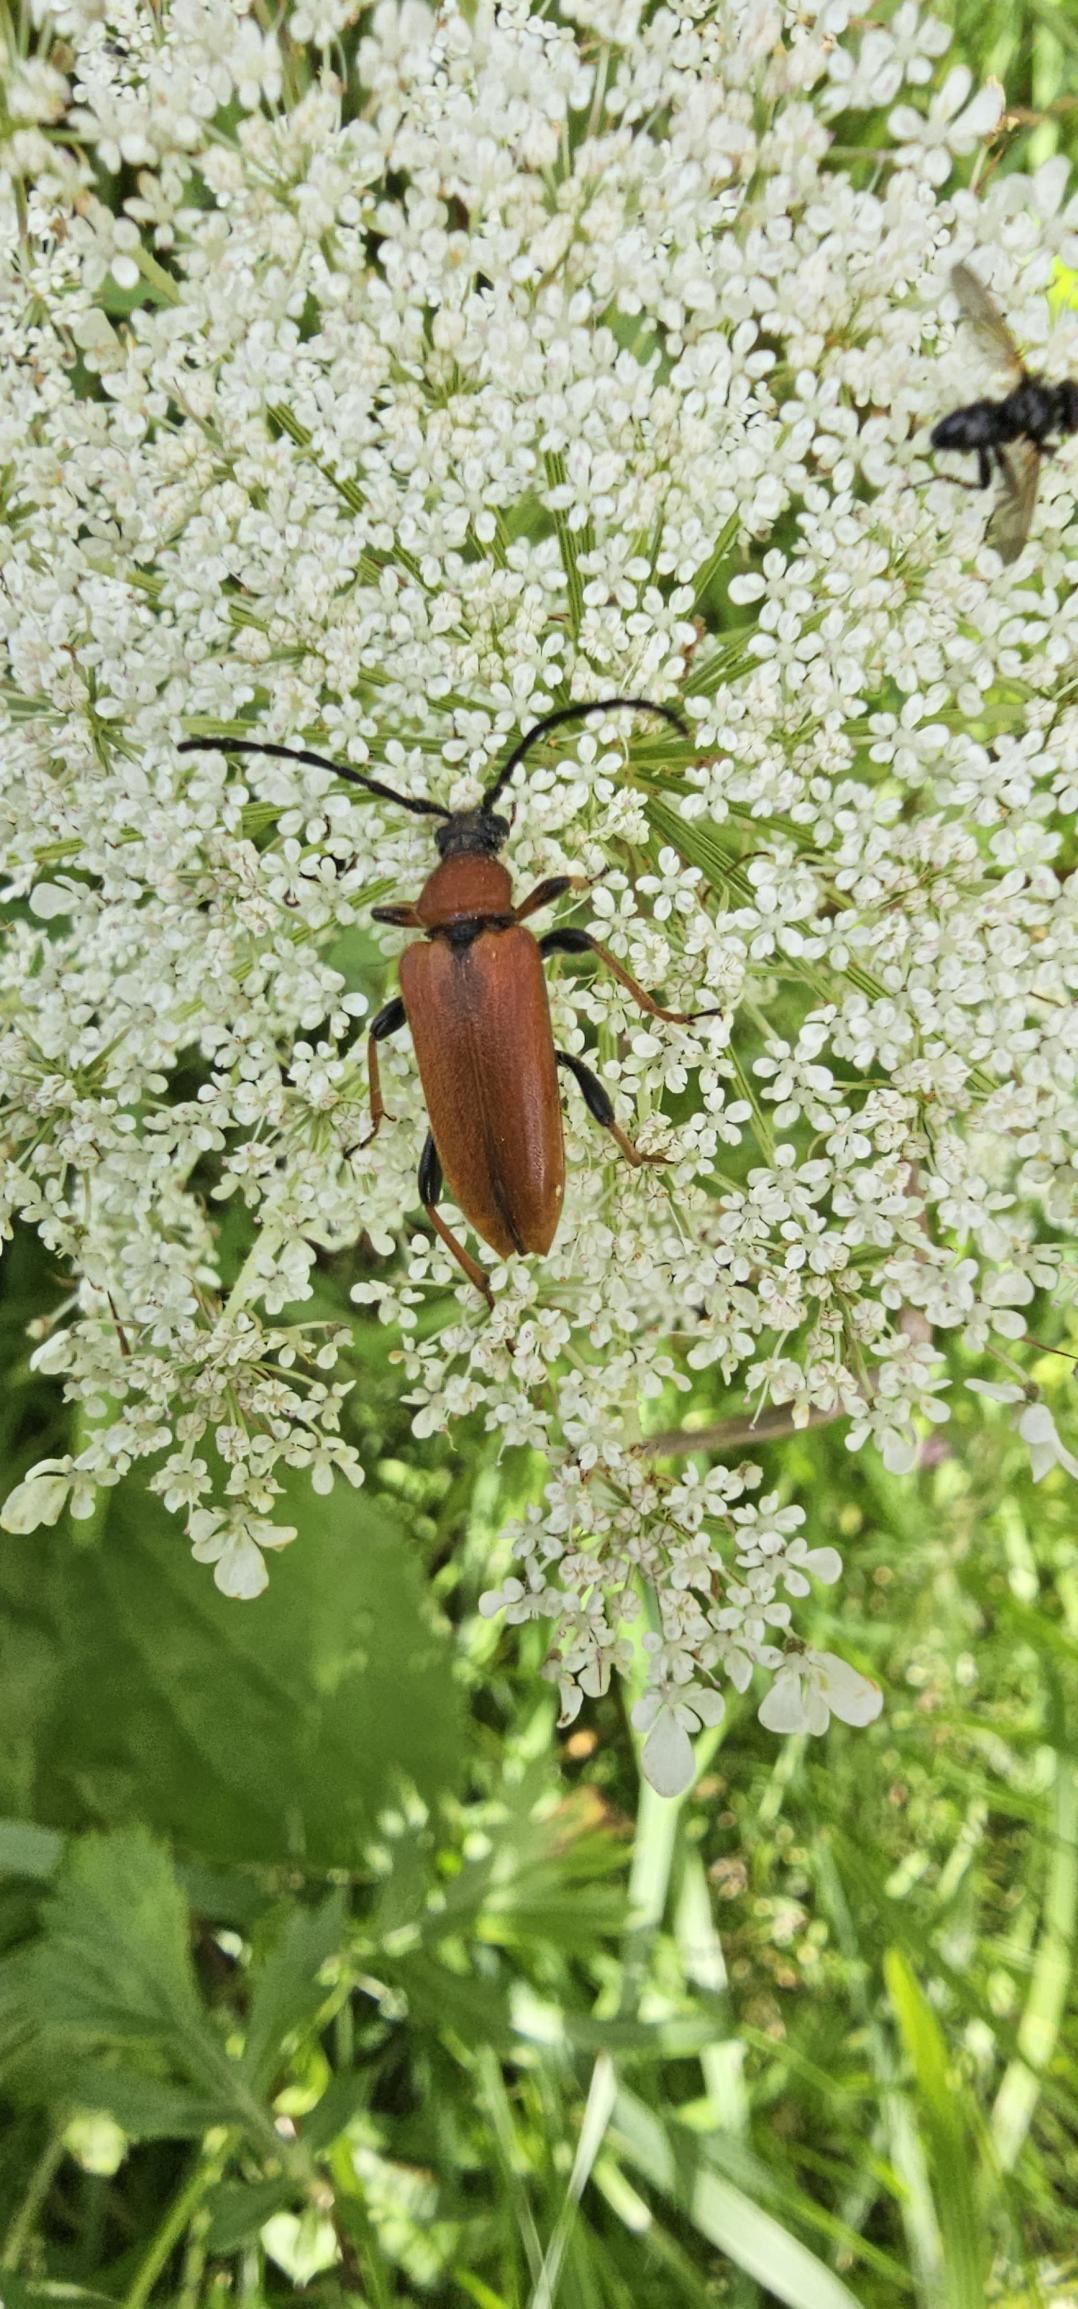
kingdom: Animalia
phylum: Arthropoda
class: Insecta
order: Coleoptera
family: Cerambycidae
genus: Stictoleptura
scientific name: Stictoleptura rubra
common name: Rød blomsterbuk
